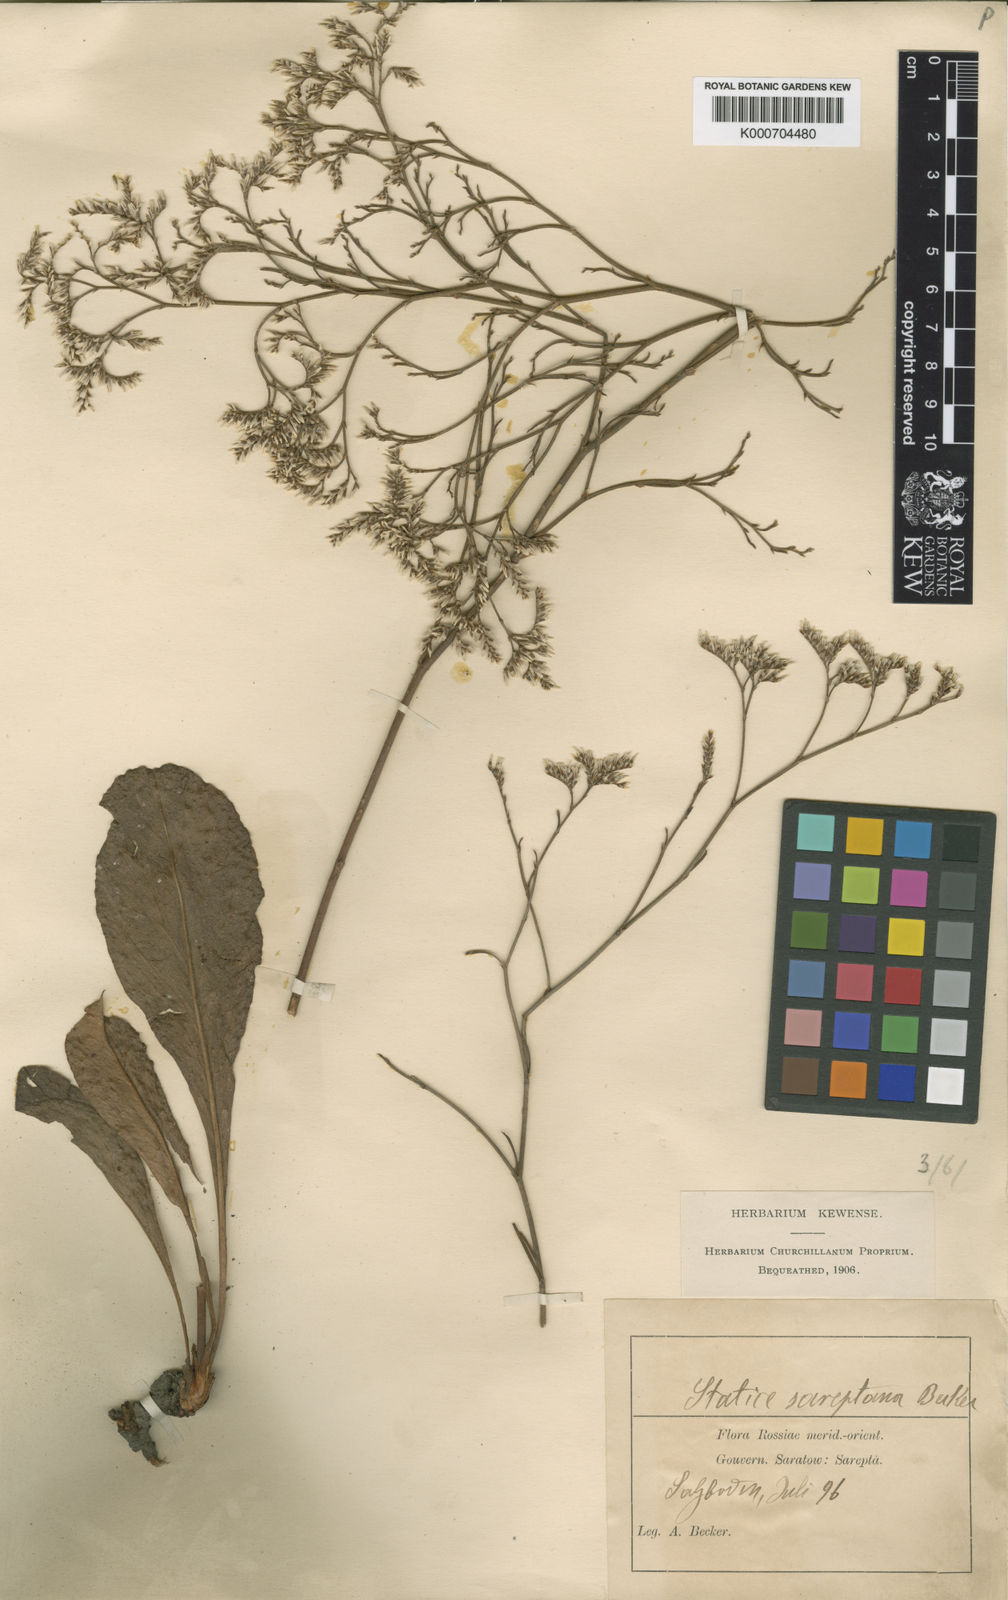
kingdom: Plantae
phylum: Tracheophyta
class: Magnoliopsida
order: Caryophyllales
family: Plumbaginaceae
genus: Limonium
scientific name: Limonium
